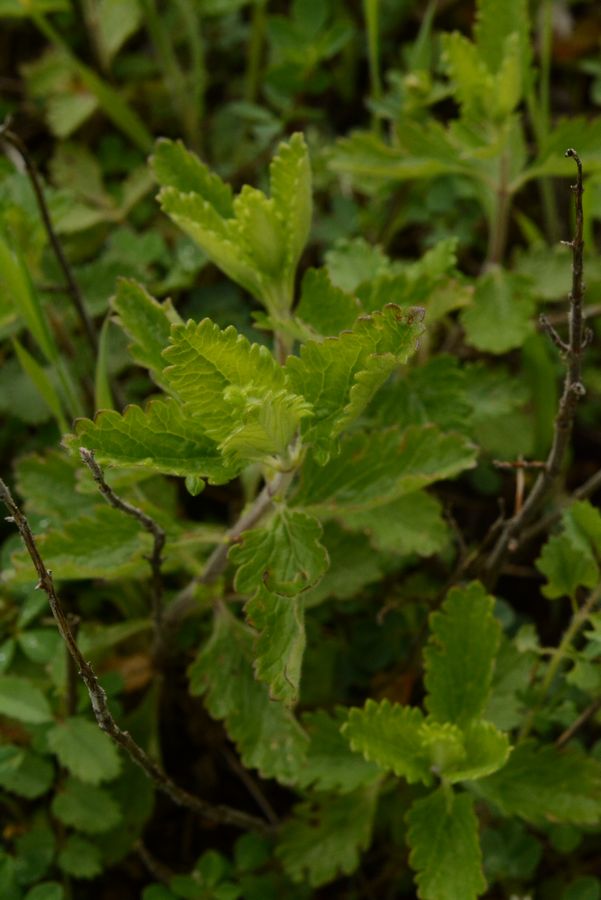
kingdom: Plantae
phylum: Tracheophyta
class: Magnoliopsida
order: Lamiales
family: Lamiaceae
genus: Teucrium
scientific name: Teucrium scordium
